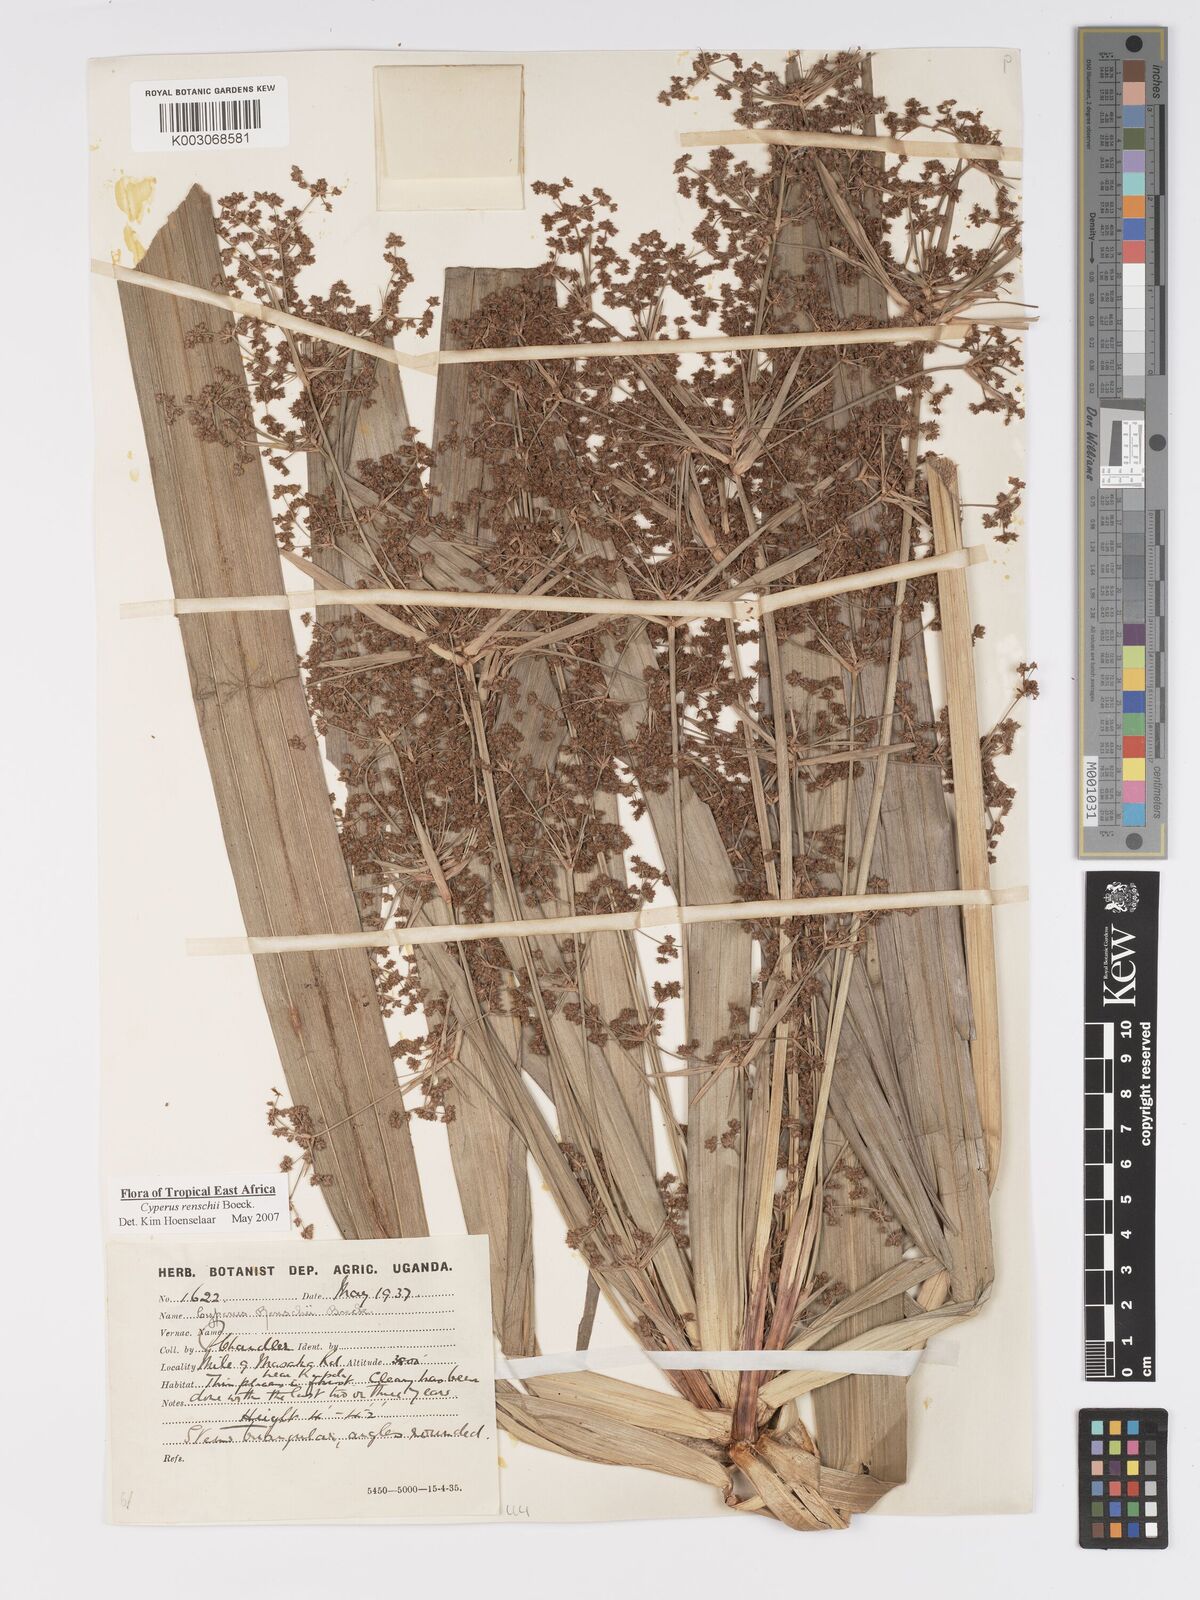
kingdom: Plantae
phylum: Tracheophyta
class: Liliopsida
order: Poales
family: Cyperaceae
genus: Cyperus
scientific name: Cyperus renschii
